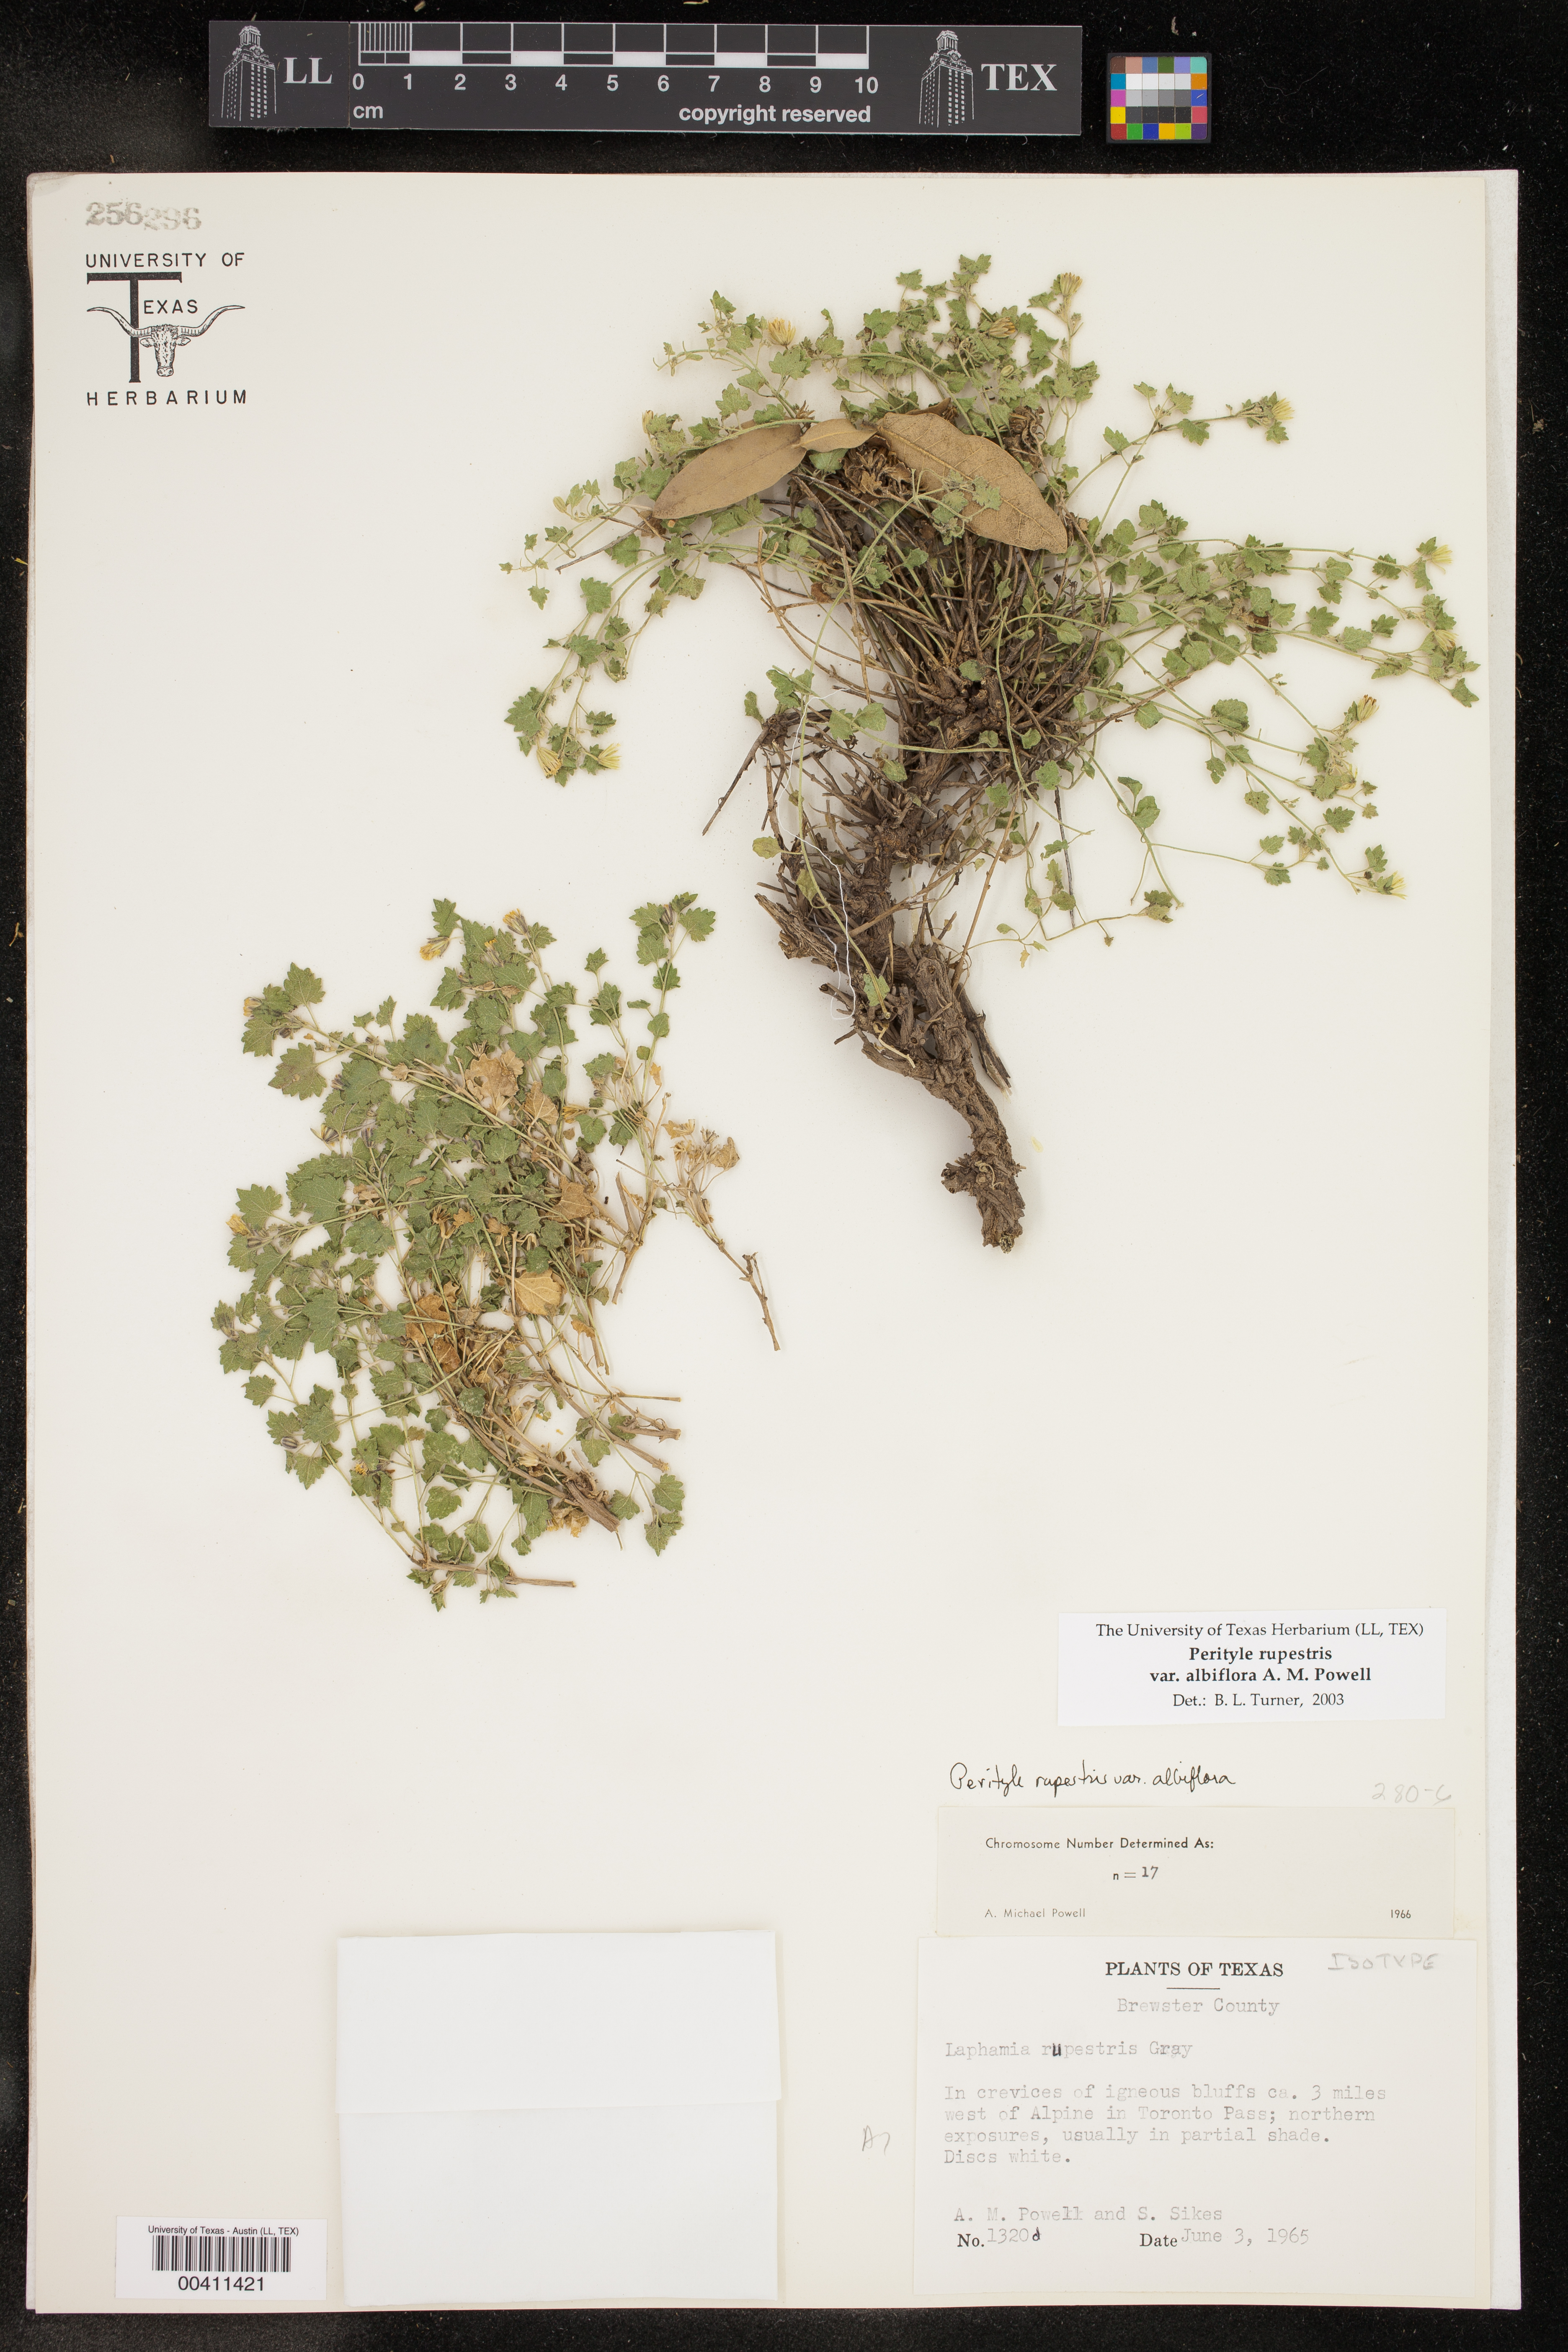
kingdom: Plantae
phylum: Tracheophyta
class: Magnoliopsida
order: Asterales
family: Asteraceae
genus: Laphamia
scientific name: Laphamia rupestris
